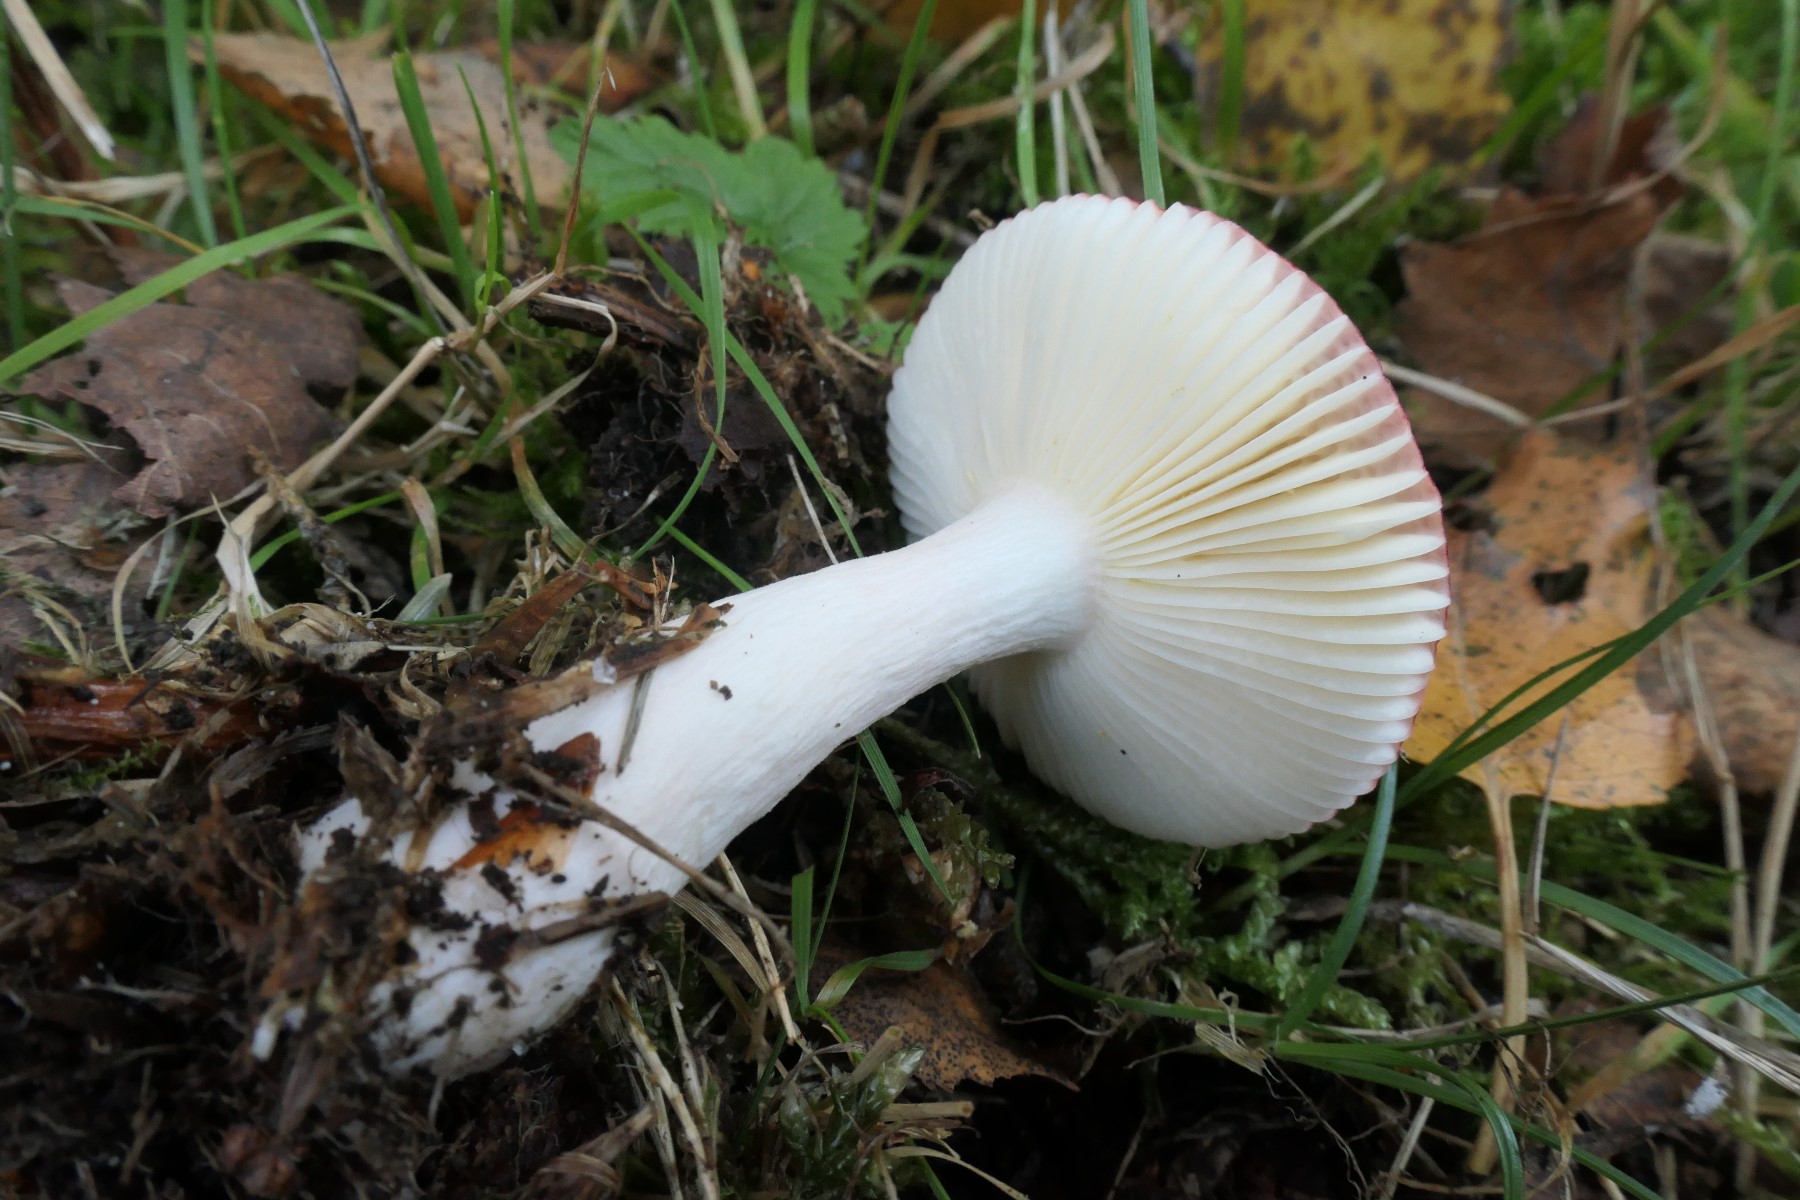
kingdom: Fungi
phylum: Basidiomycota
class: Agaricomycetes
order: Russulales
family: Russulaceae
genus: Russula
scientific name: Russula nitida
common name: året skørhat
